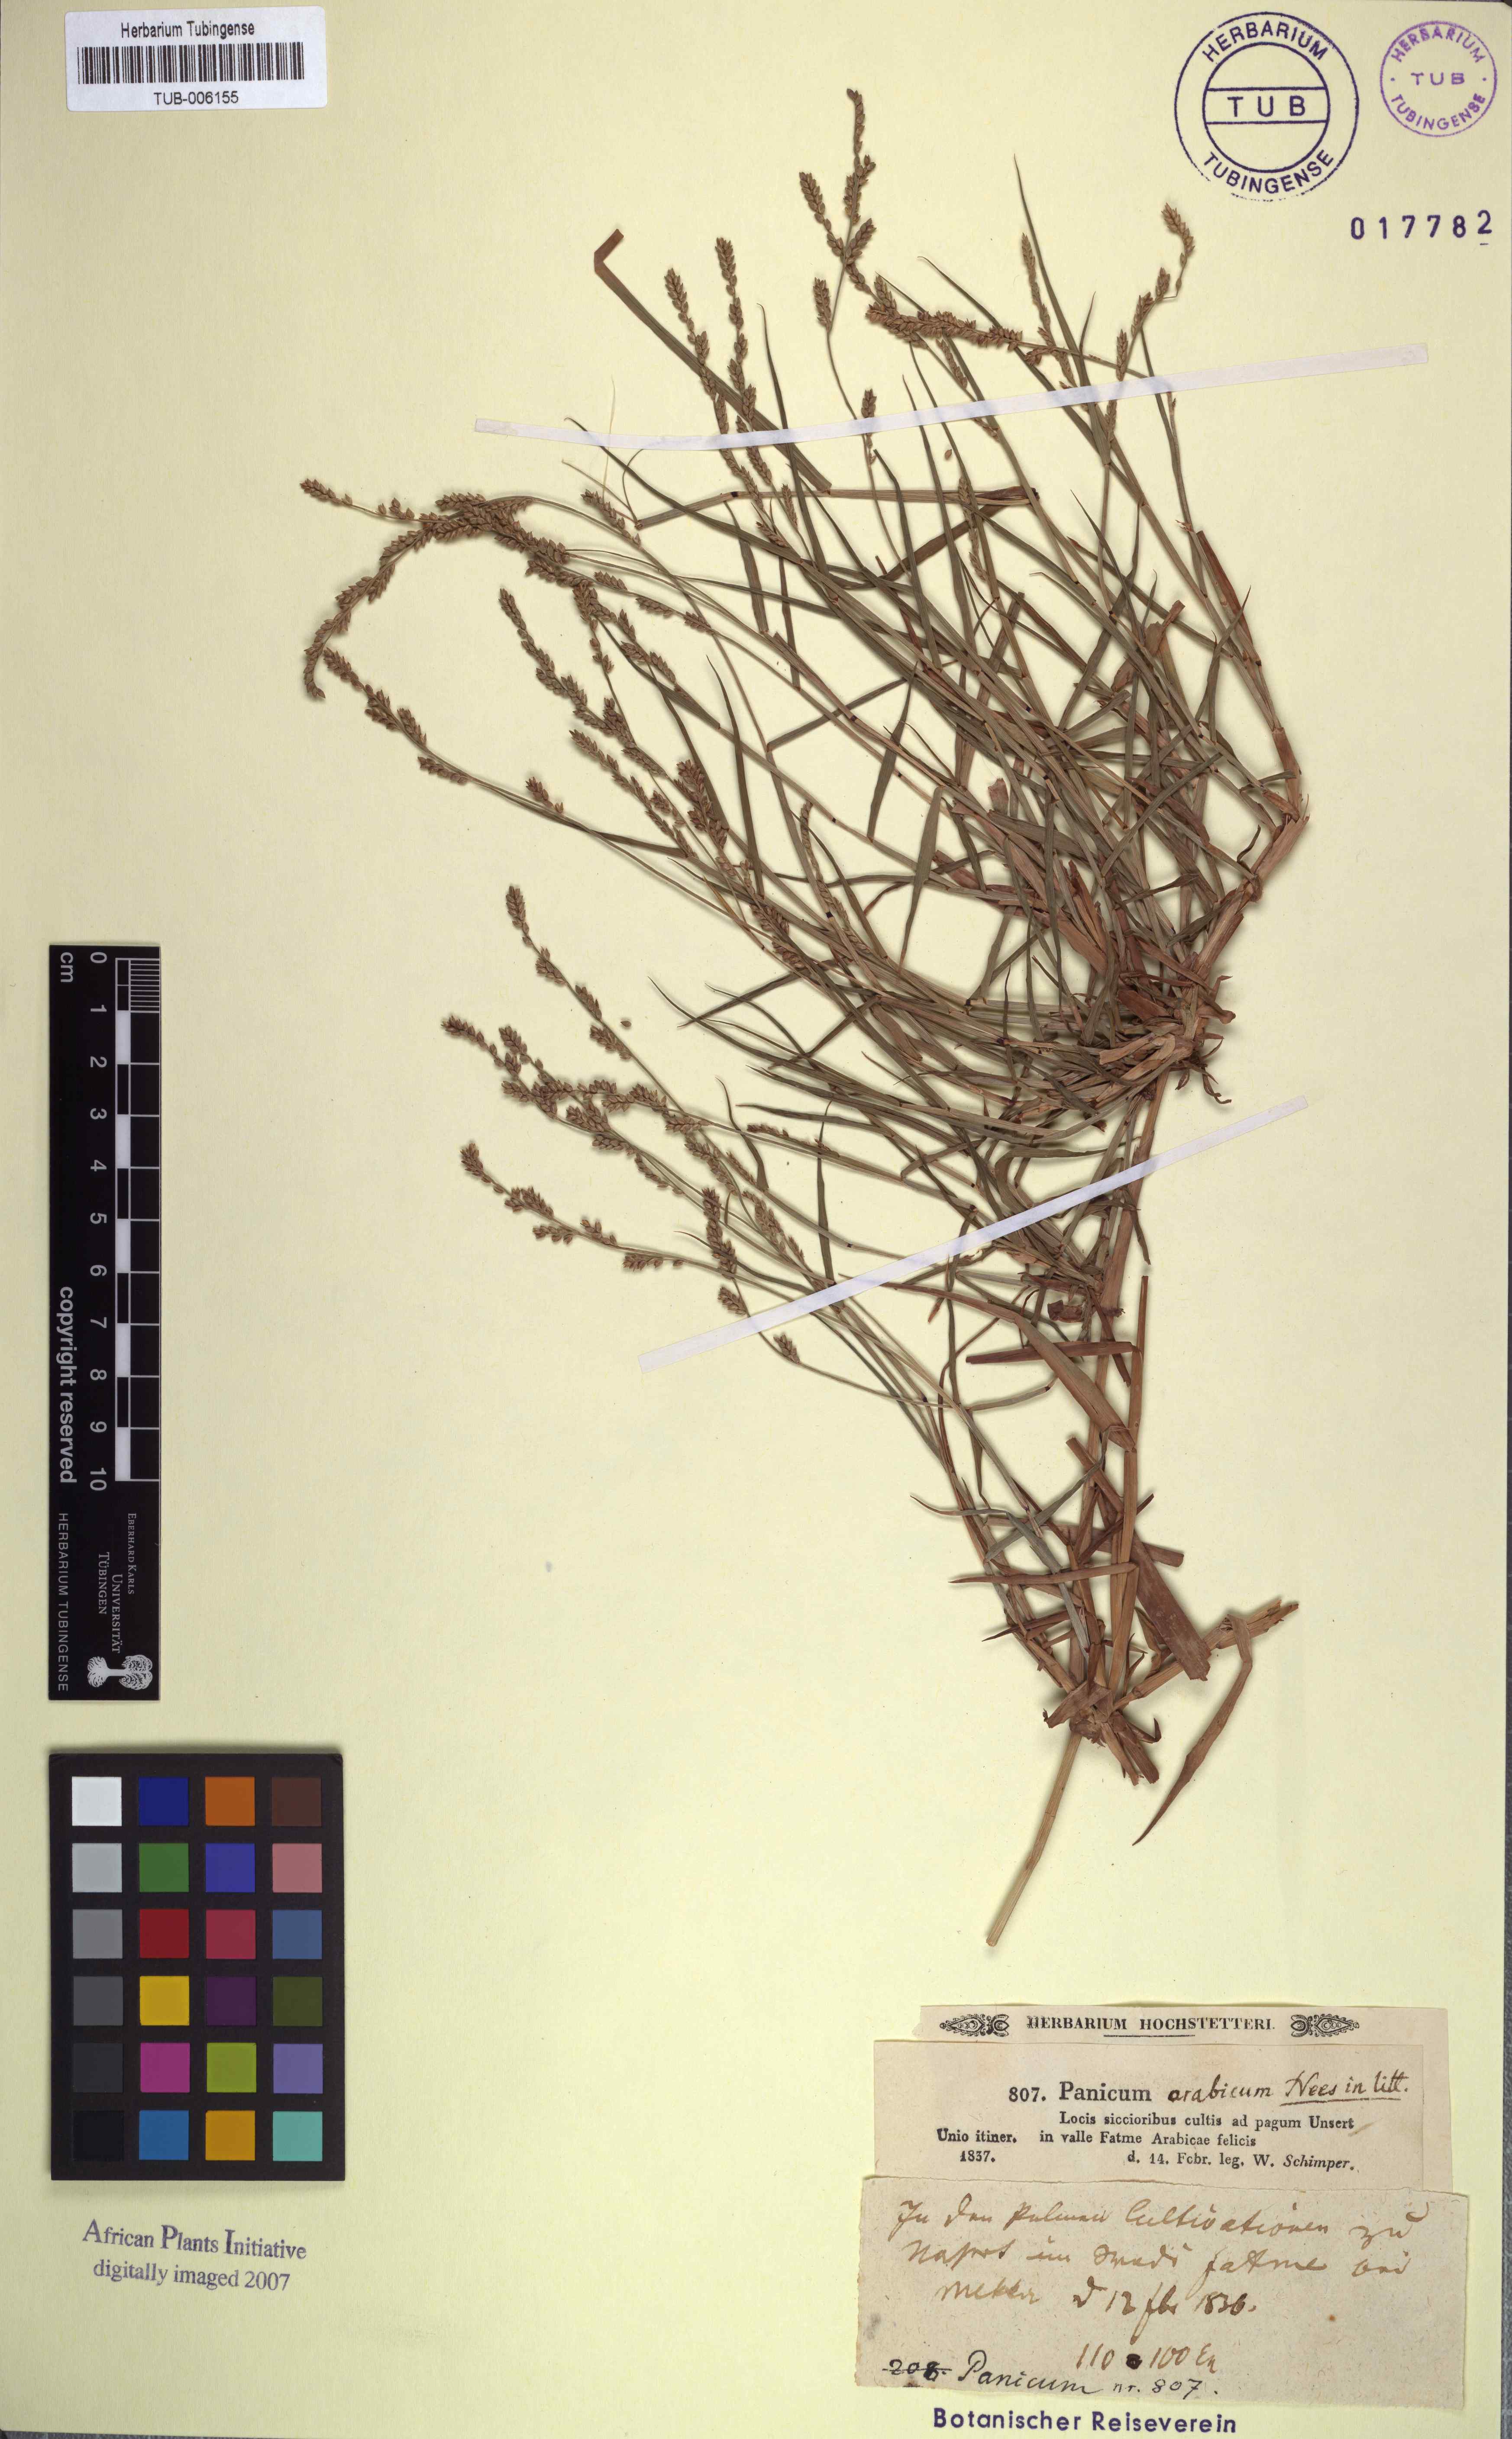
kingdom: Plantae
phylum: Tracheophyta
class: Liliopsida
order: Poales
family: Poaceae
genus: Echinochloa
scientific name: Echinochloa colonum
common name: Jungle rice
